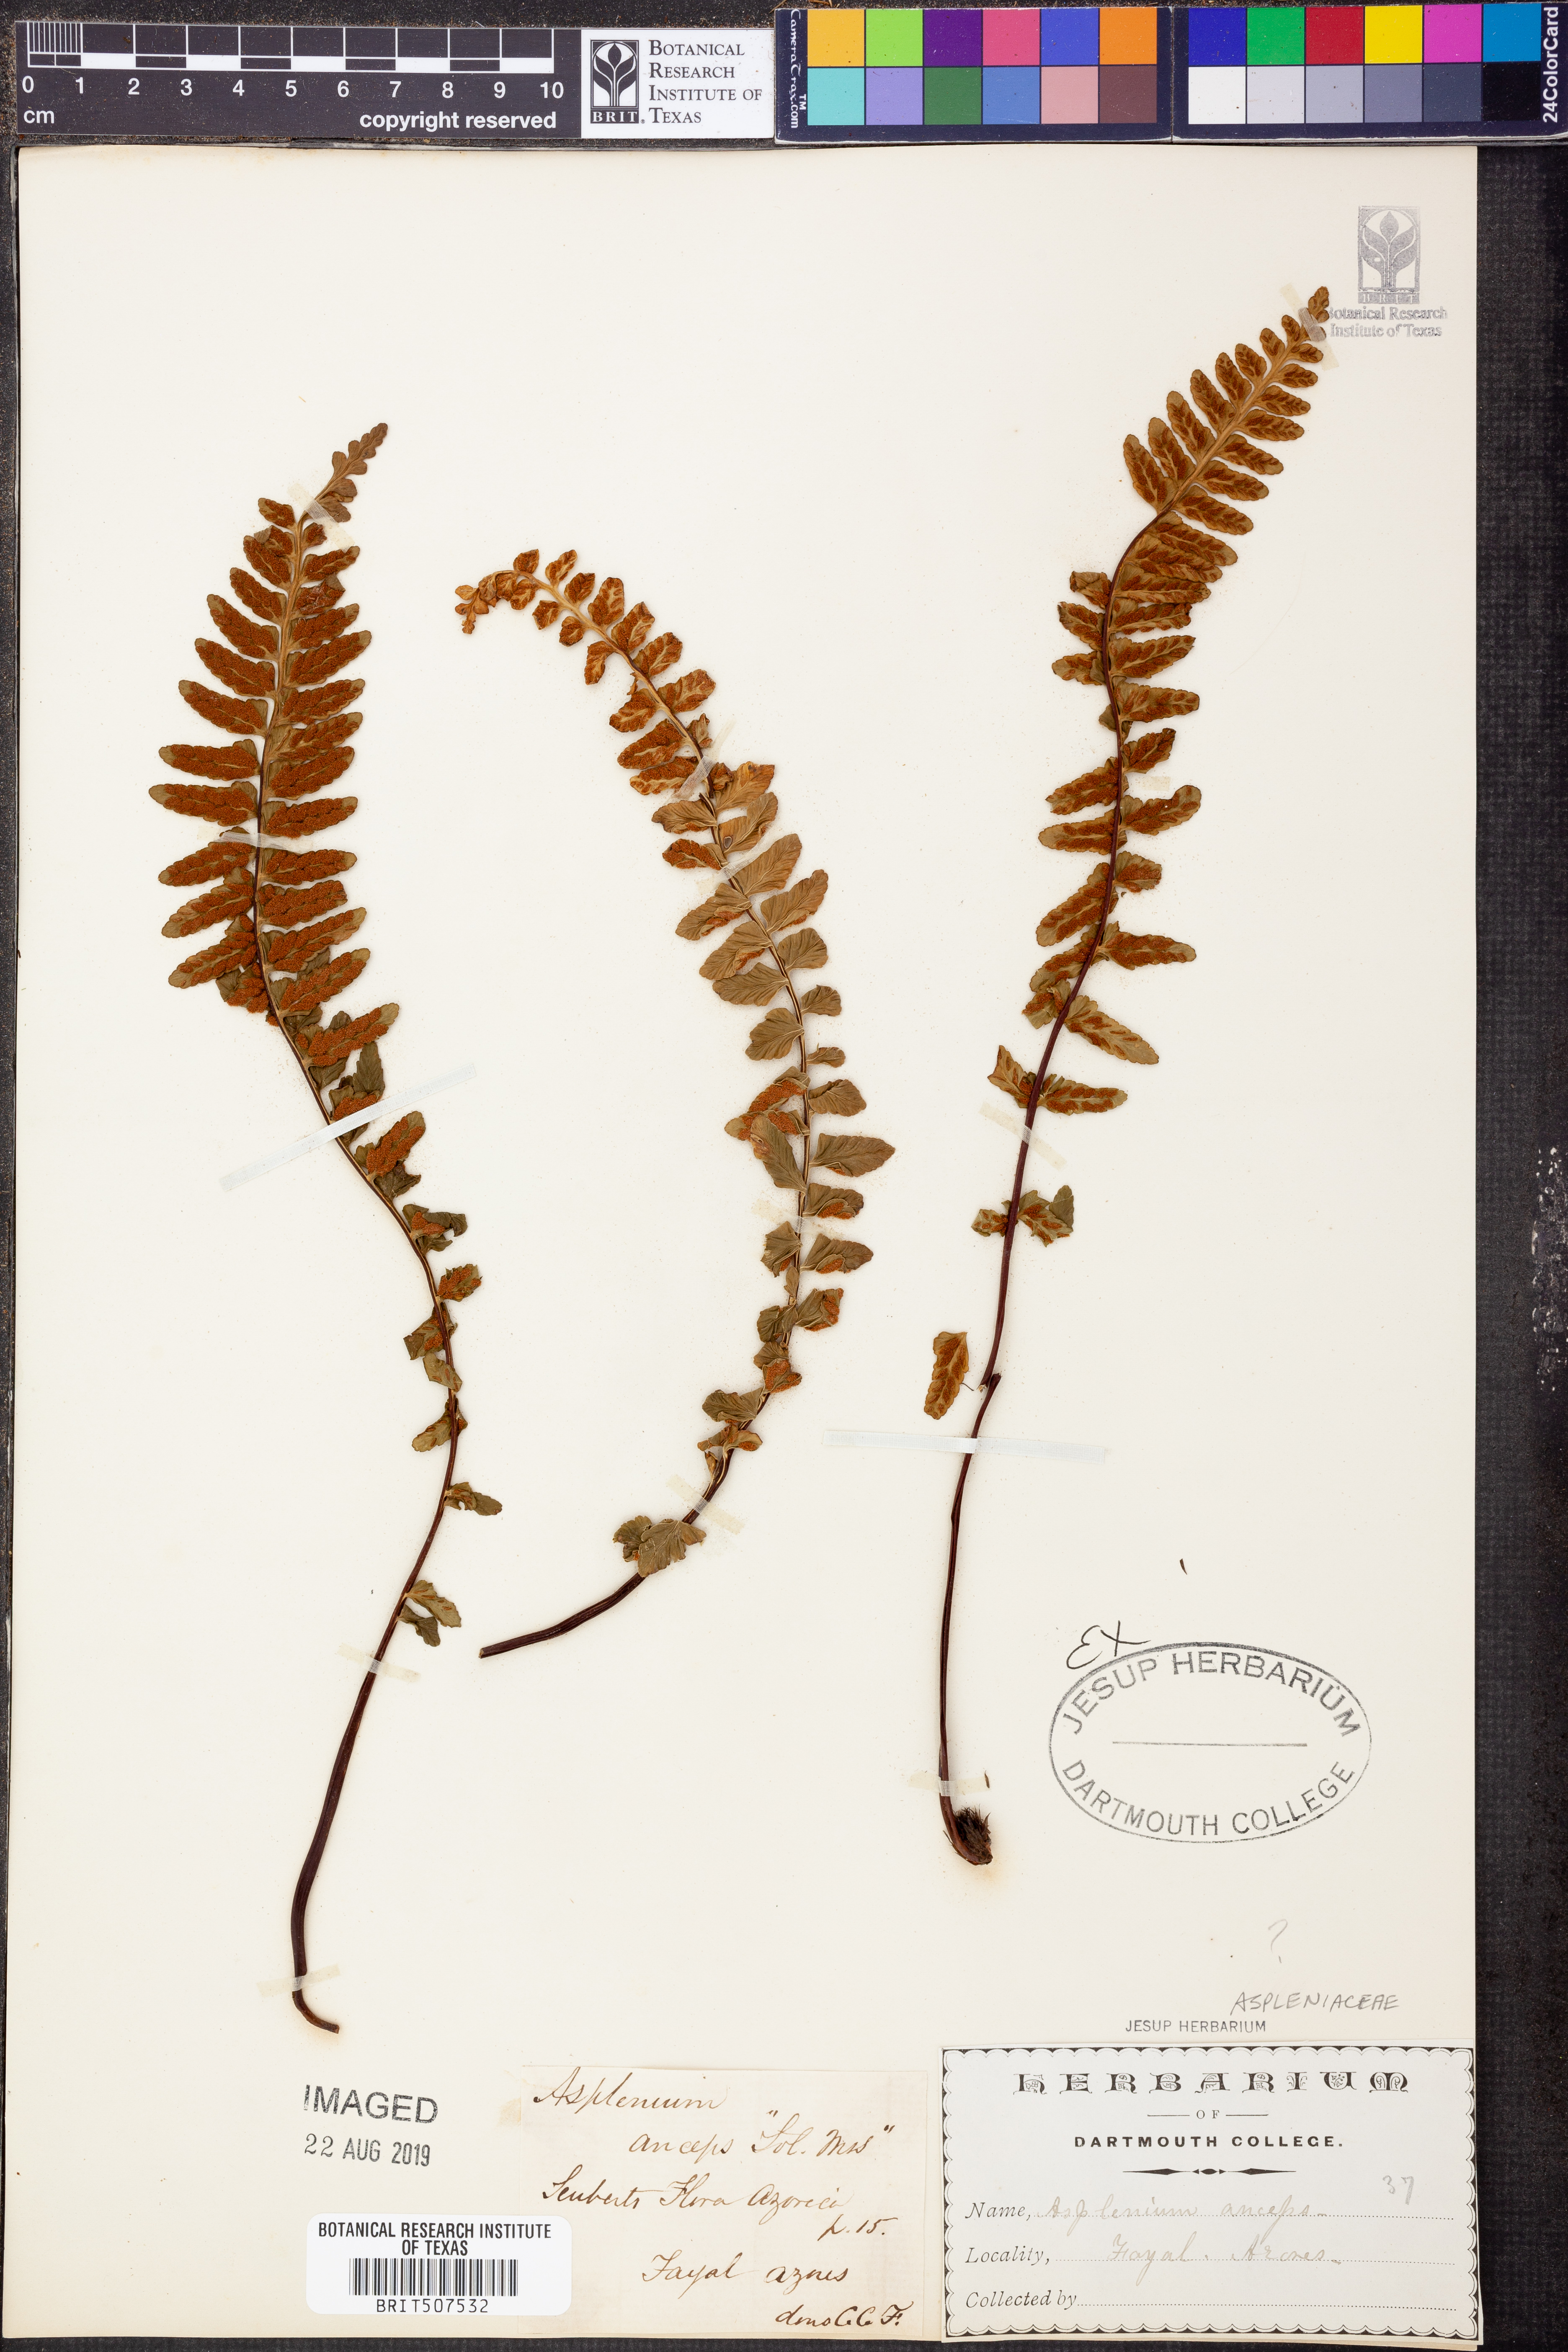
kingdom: Plantae
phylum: Tracheophyta
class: Polypodiopsida
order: Polypodiales
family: Aspleniaceae
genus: Asplenium
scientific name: Asplenium anceps
